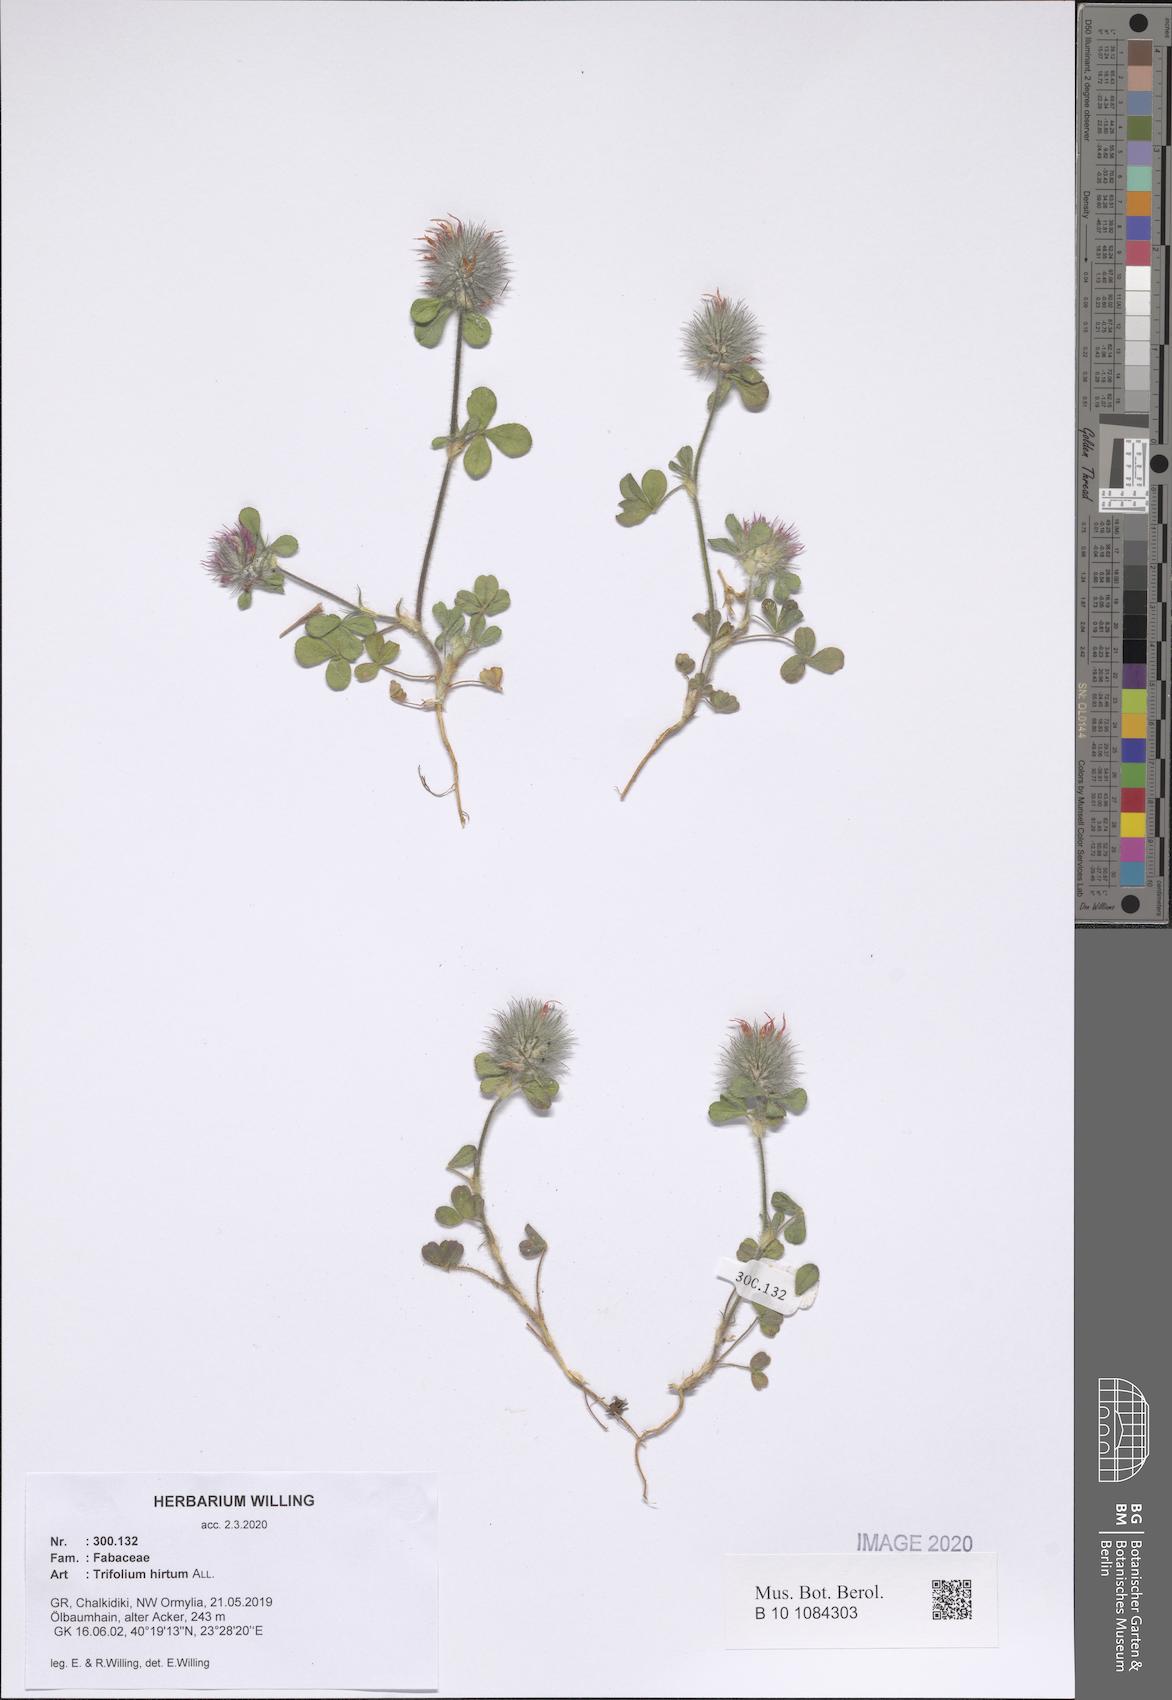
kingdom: Plantae
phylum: Tracheophyta
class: Magnoliopsida
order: Fabales
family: Fabaceae
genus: Trifolium
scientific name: Trifolium hirtum
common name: Rose clover
